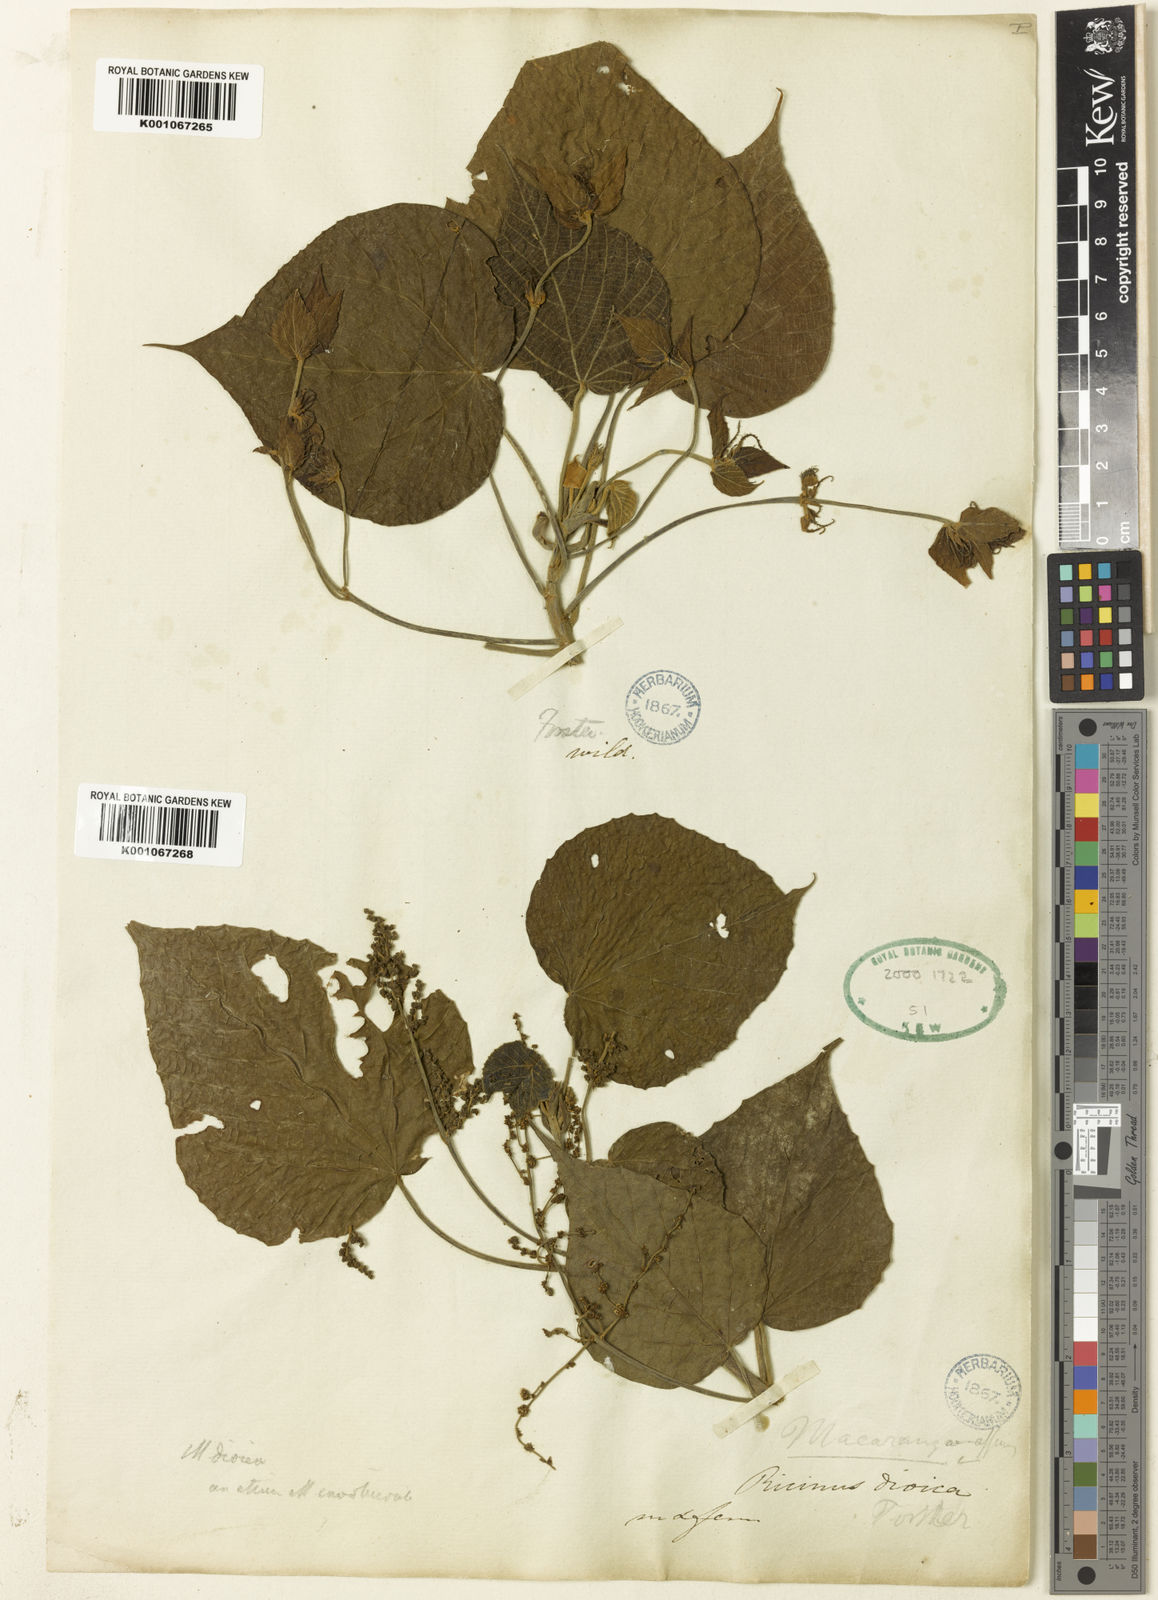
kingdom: Plantae
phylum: Tracheophyta
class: Magnoliopsida
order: Malpighiales
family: Euphorbiaceae
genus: Macaranga
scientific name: Macaranga
